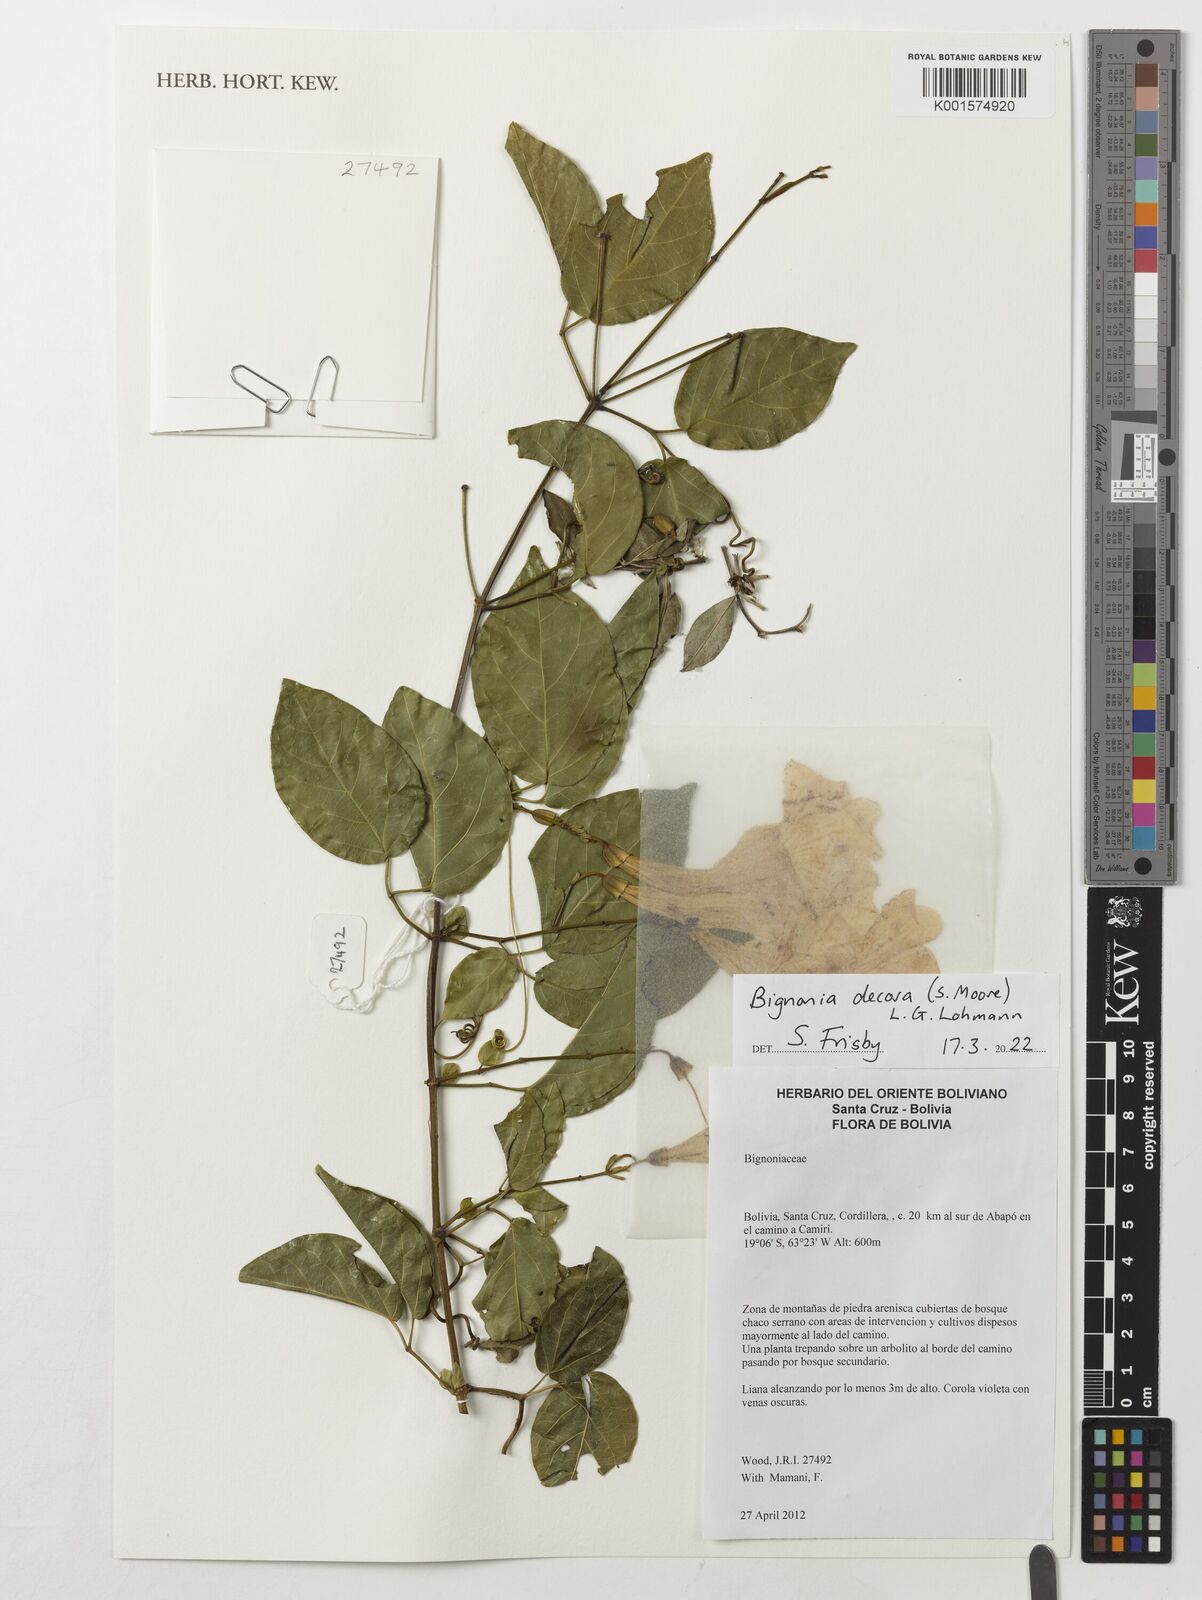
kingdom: Plantae
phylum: Tracheophyta
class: Magnoliopsida
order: Lamiales
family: Bignoniaceae
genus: Bignonia
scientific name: Bignonia decora
